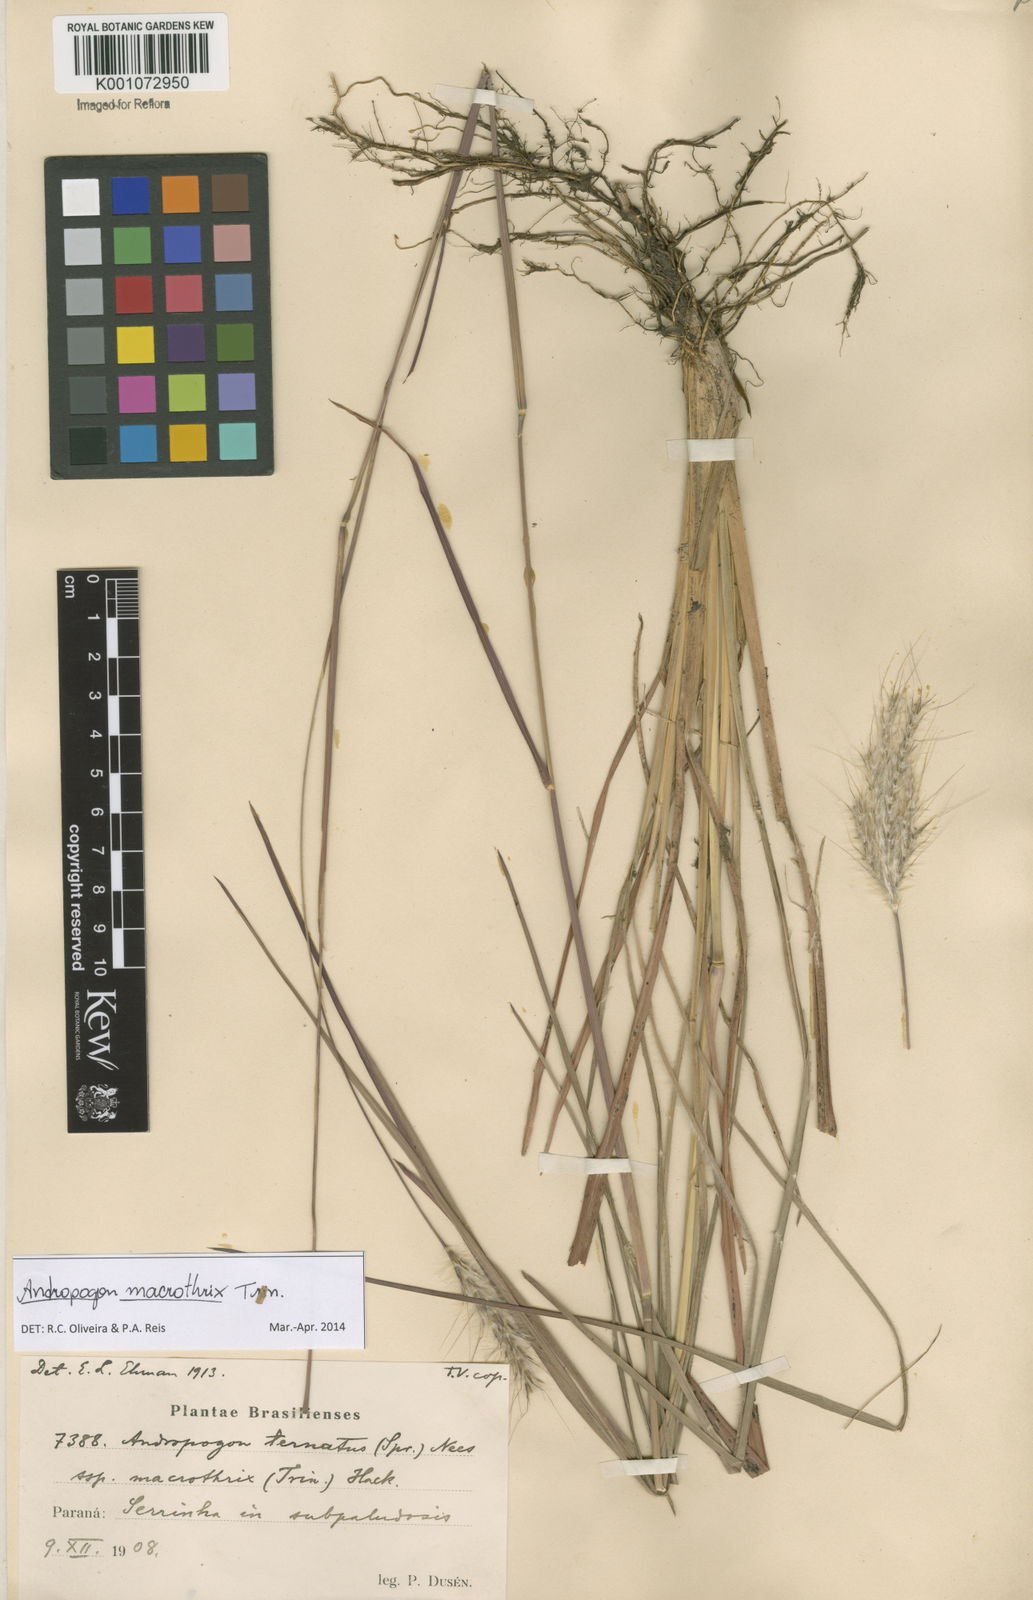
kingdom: Plantae
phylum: Tracheophyta
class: Liliopsida
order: Poales
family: Poaceae
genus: Andropogon
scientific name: Andropogon macrothrix
